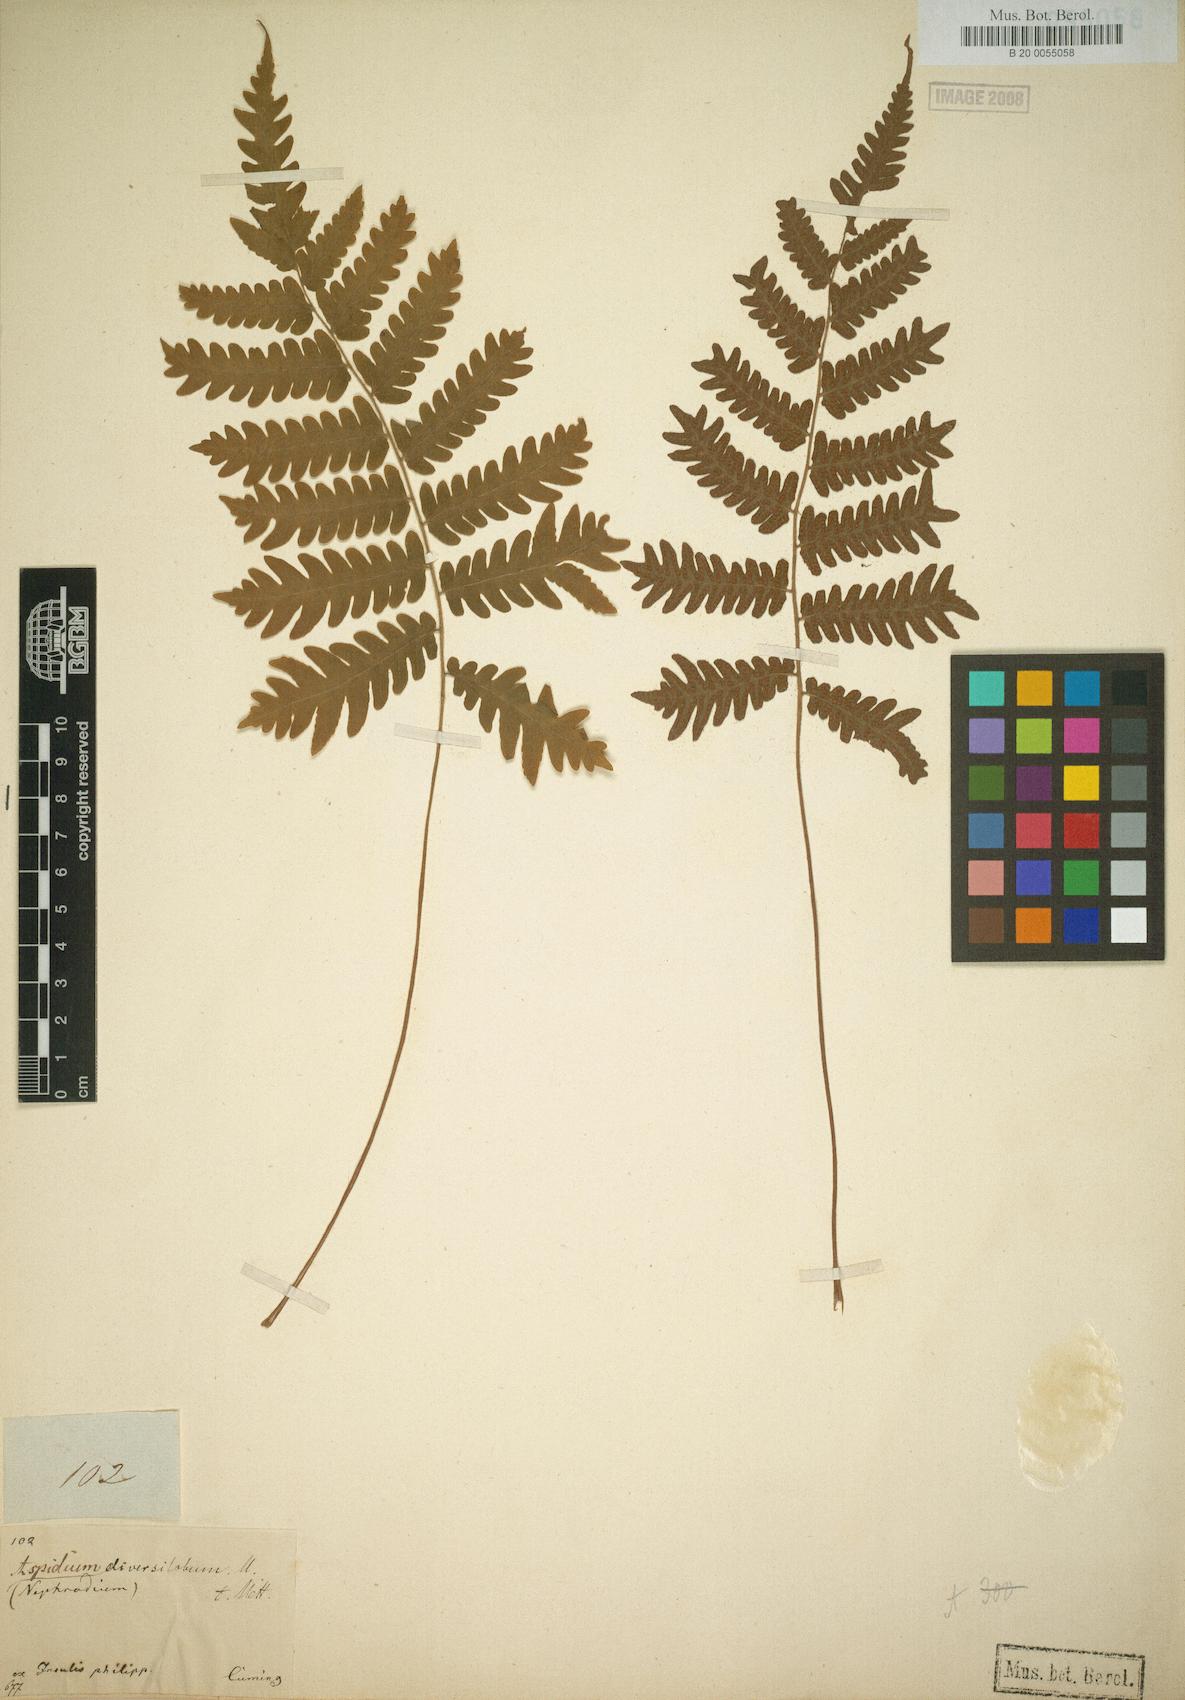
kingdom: Plantae
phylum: Tracheophyta
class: Polypodiopsida
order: Polypodiales
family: Thelypteridaceae
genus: Sphaerostephanos
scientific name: Sphaerostephanos canescens
